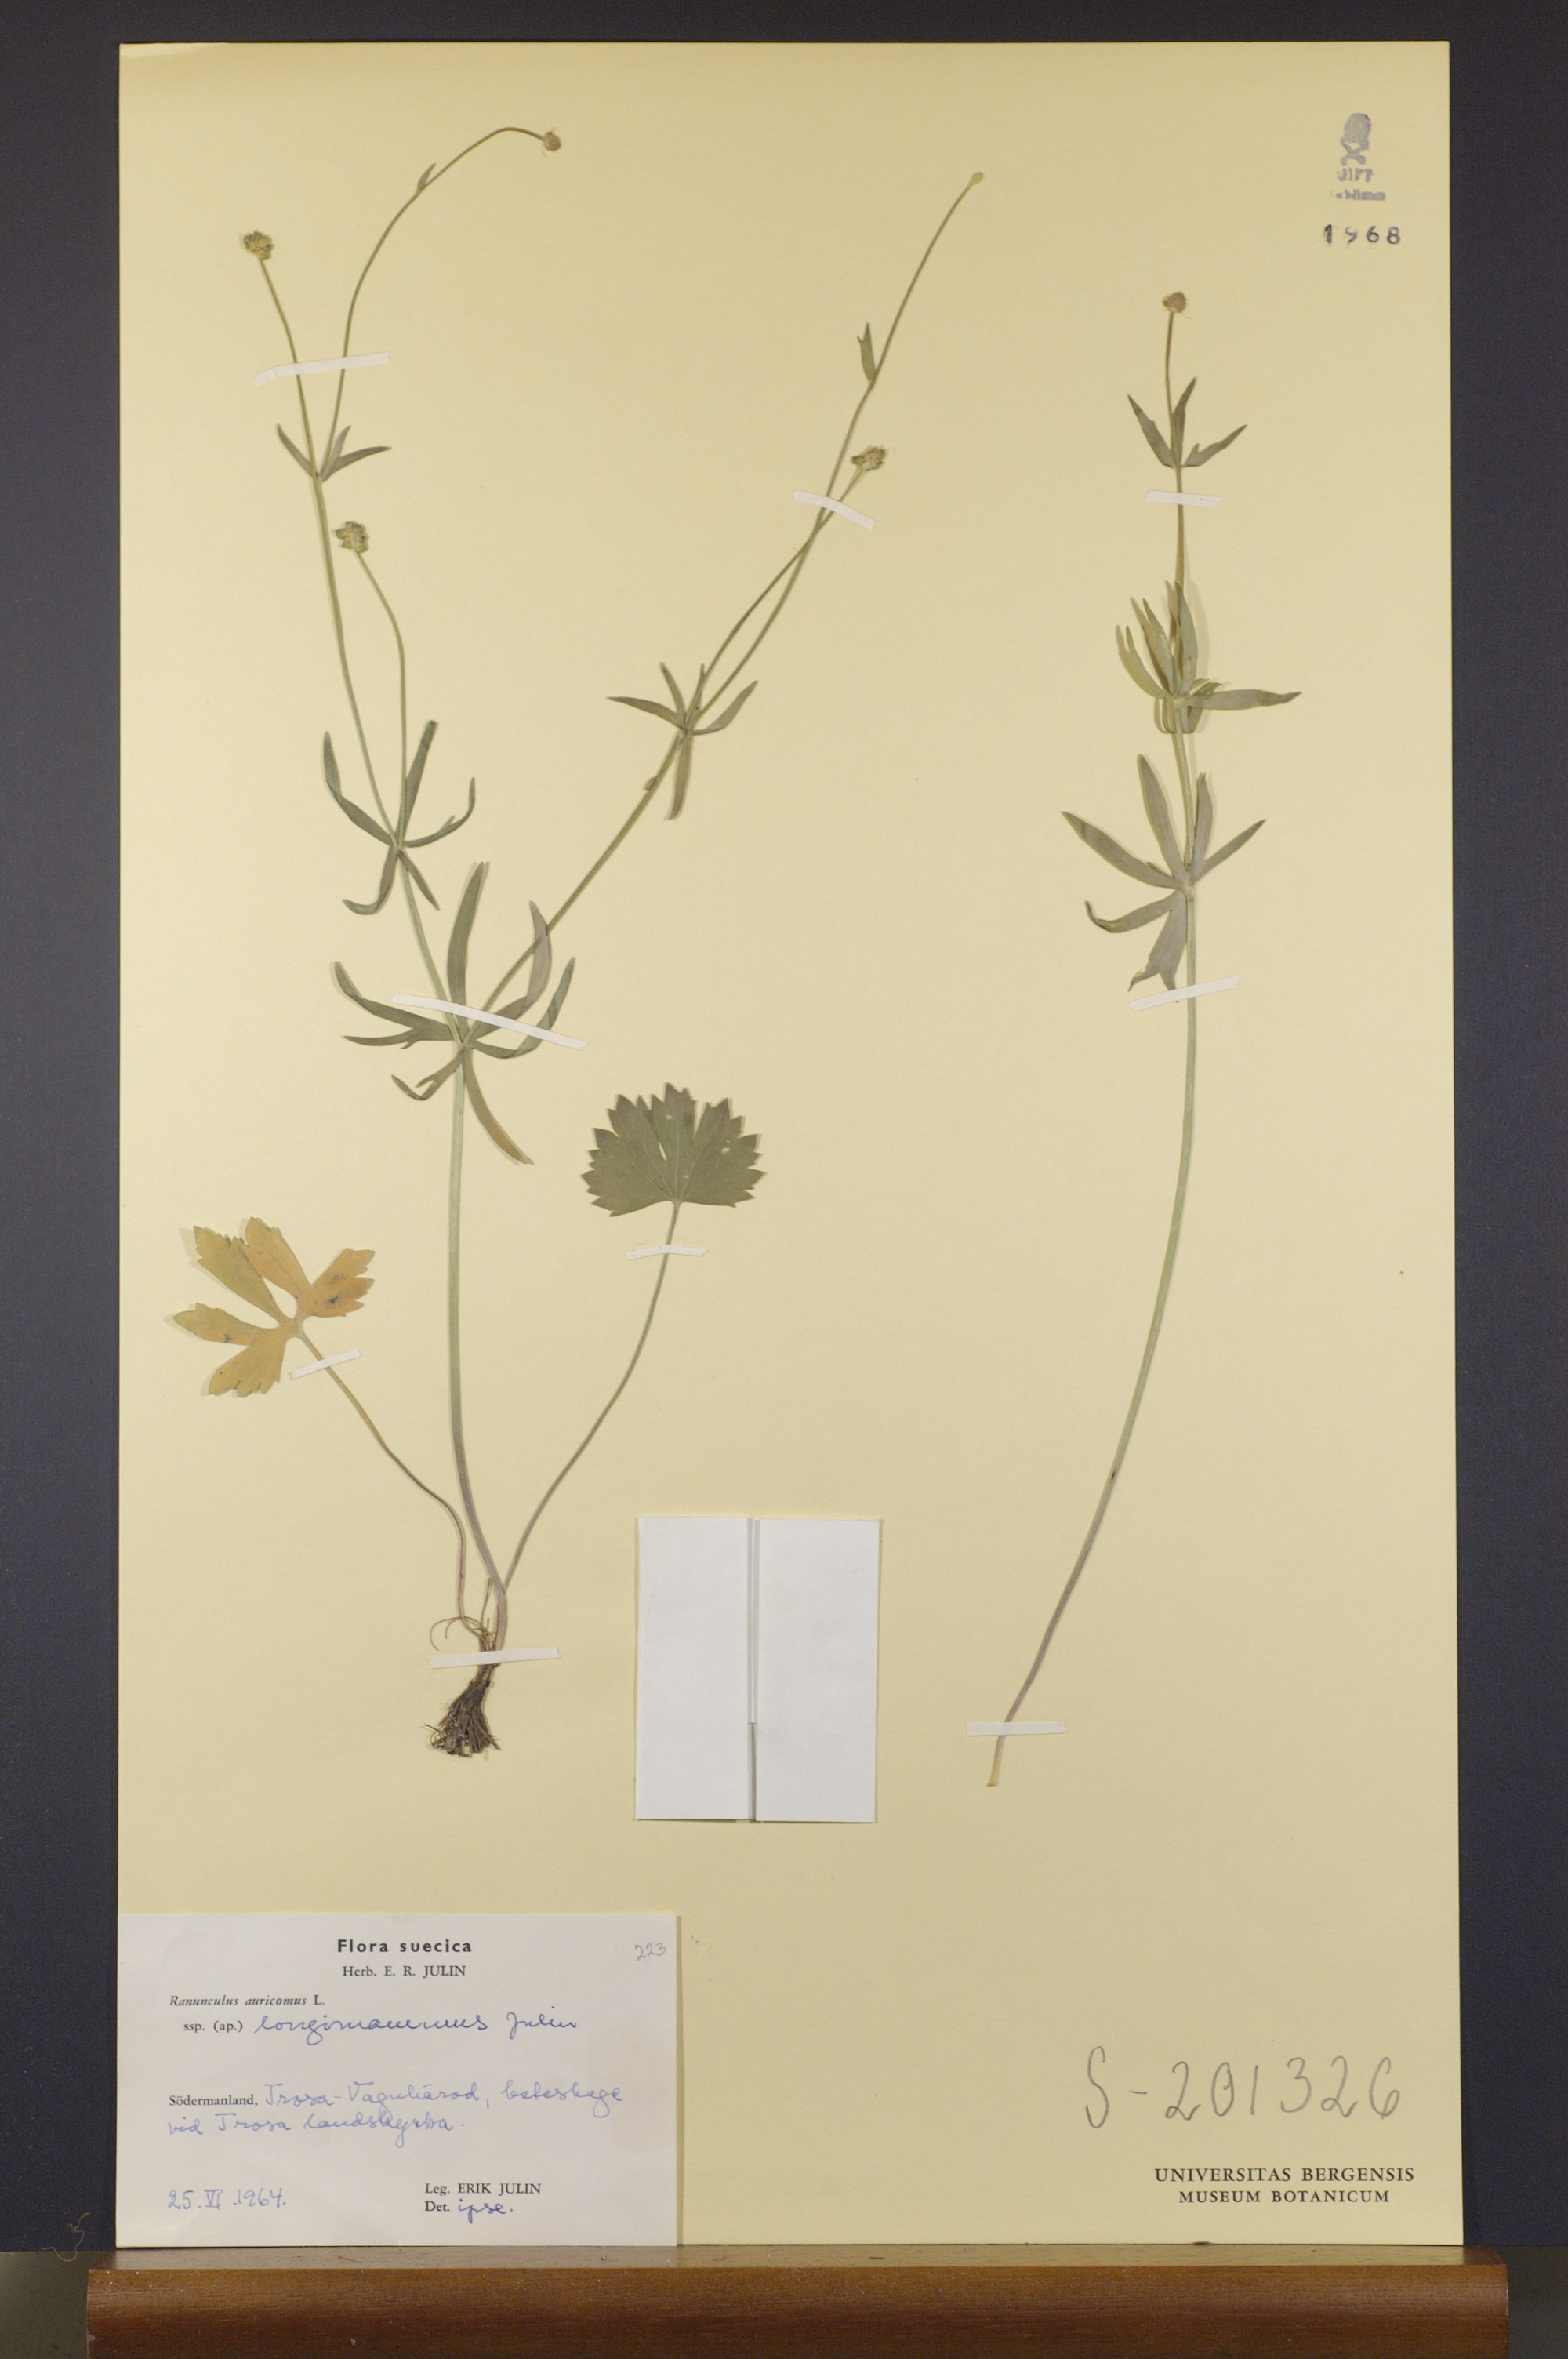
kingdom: Plantae
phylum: Tracheophyta
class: Magnoliopsida
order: Ranunculales
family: Ranunculaceae
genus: Ranunculus
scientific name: Ranunculus longimammus
